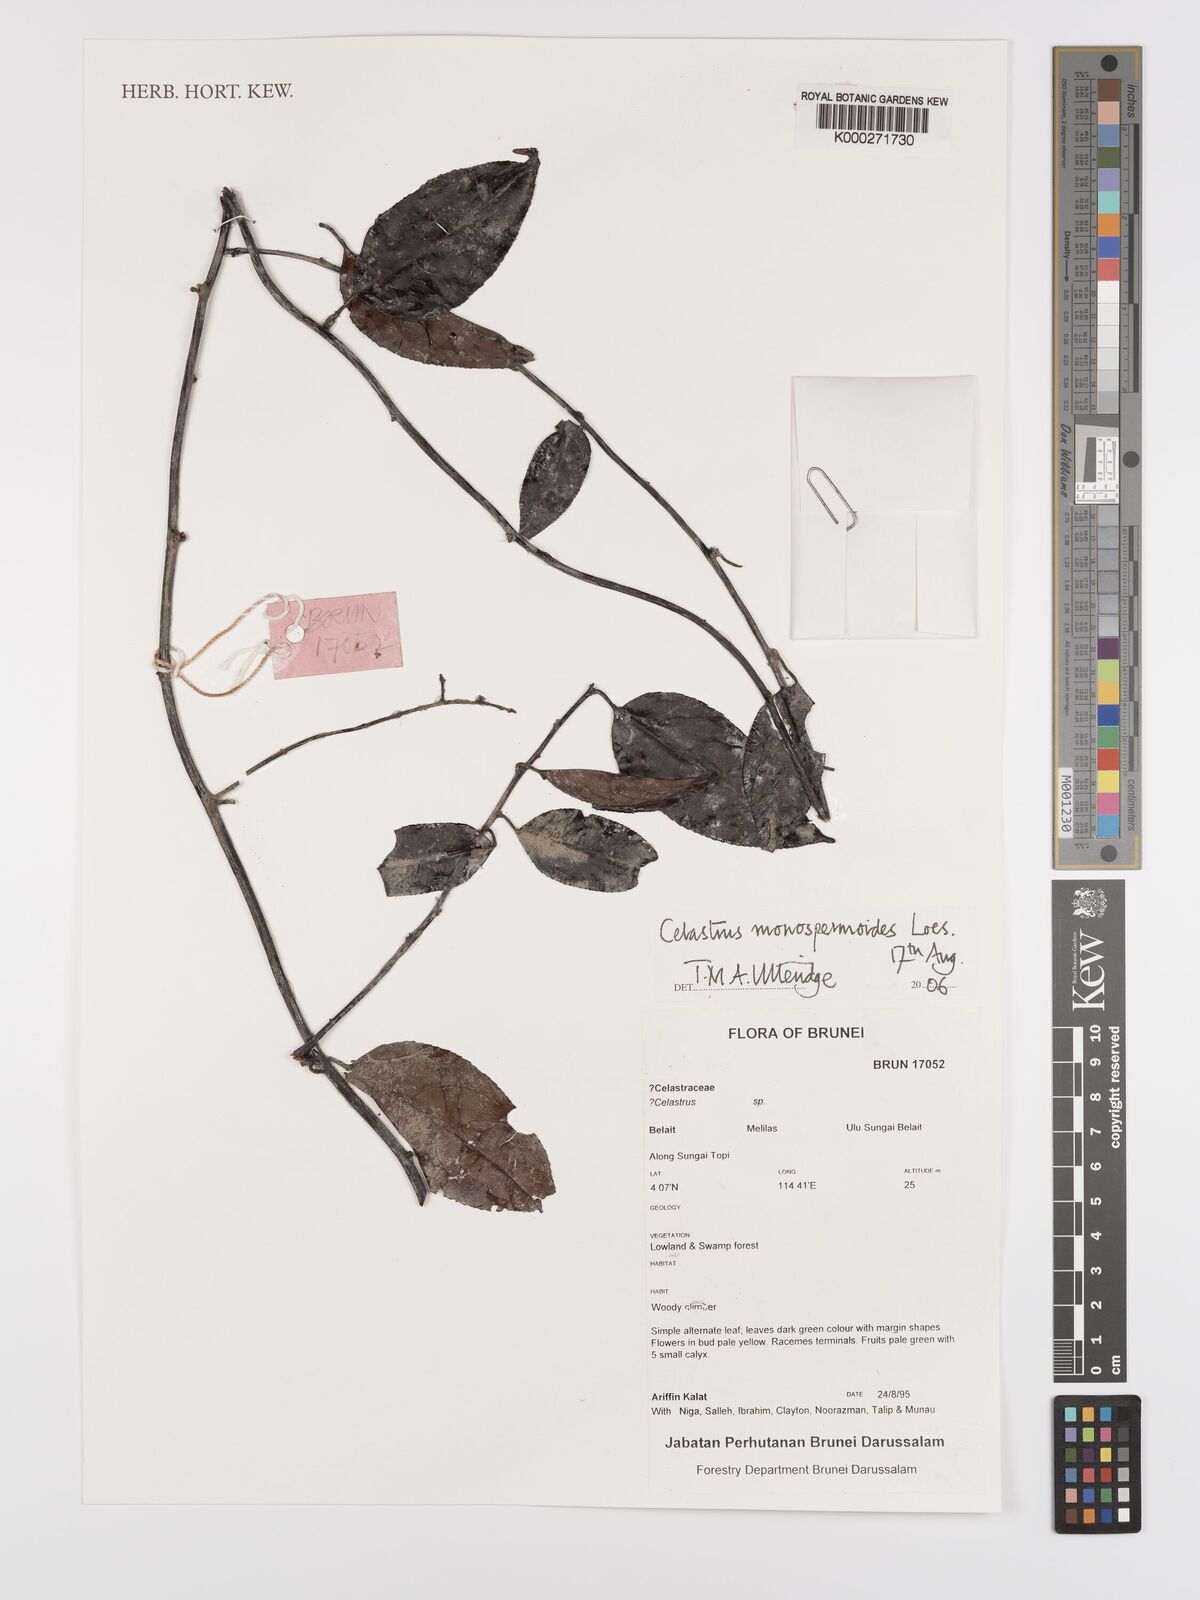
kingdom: Plantae
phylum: Tracheophyta
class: Magnoliopsida
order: Celastrales
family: Celastraceae
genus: Celastrus
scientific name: Celastrus monospermoides
